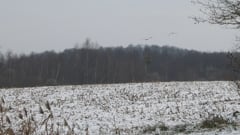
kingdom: Animalia
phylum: Chordata
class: Aves
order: Gruiformes
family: Gruidae
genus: Grus
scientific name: Grus grus
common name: Common crane
